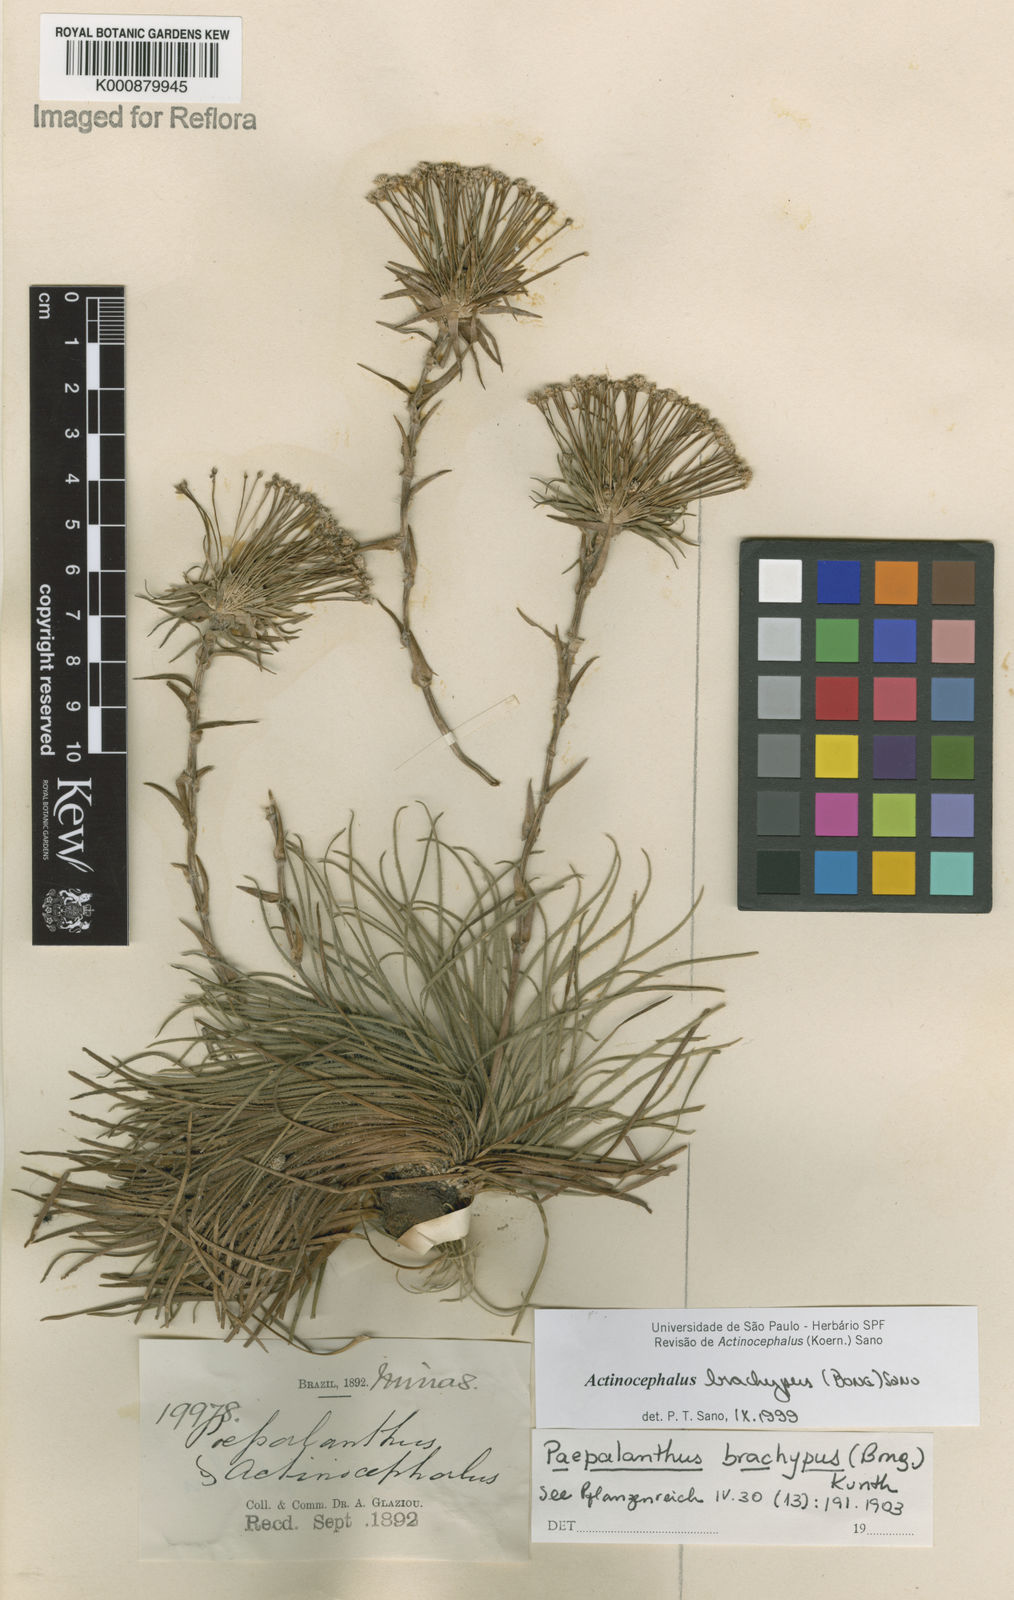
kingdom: Plantae
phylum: Tracheophyta
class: Liliopsida
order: Poales
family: Eriocaulaceae
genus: Paepalanthus
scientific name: Paepalanthus brachypus
